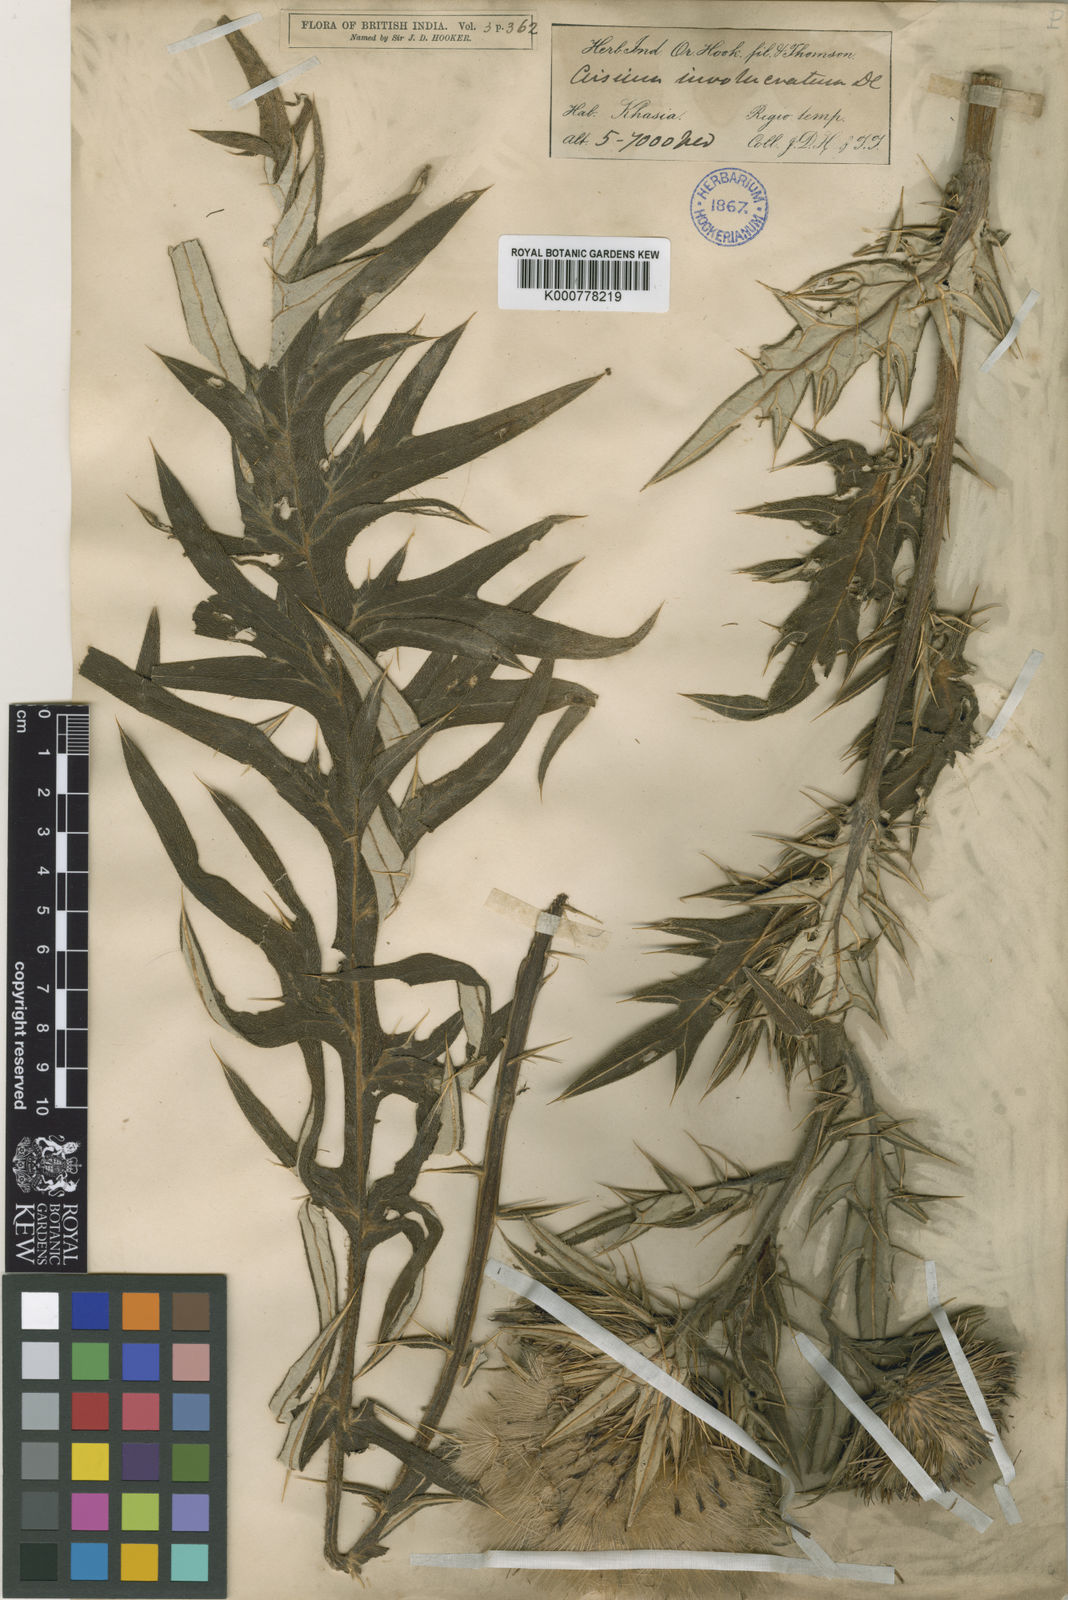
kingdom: Plantae
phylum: Tracheophyta
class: Magnoliopsida
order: Asterales
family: Asteraceae
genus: Lophiolepis
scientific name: Lophiolepis veruta
